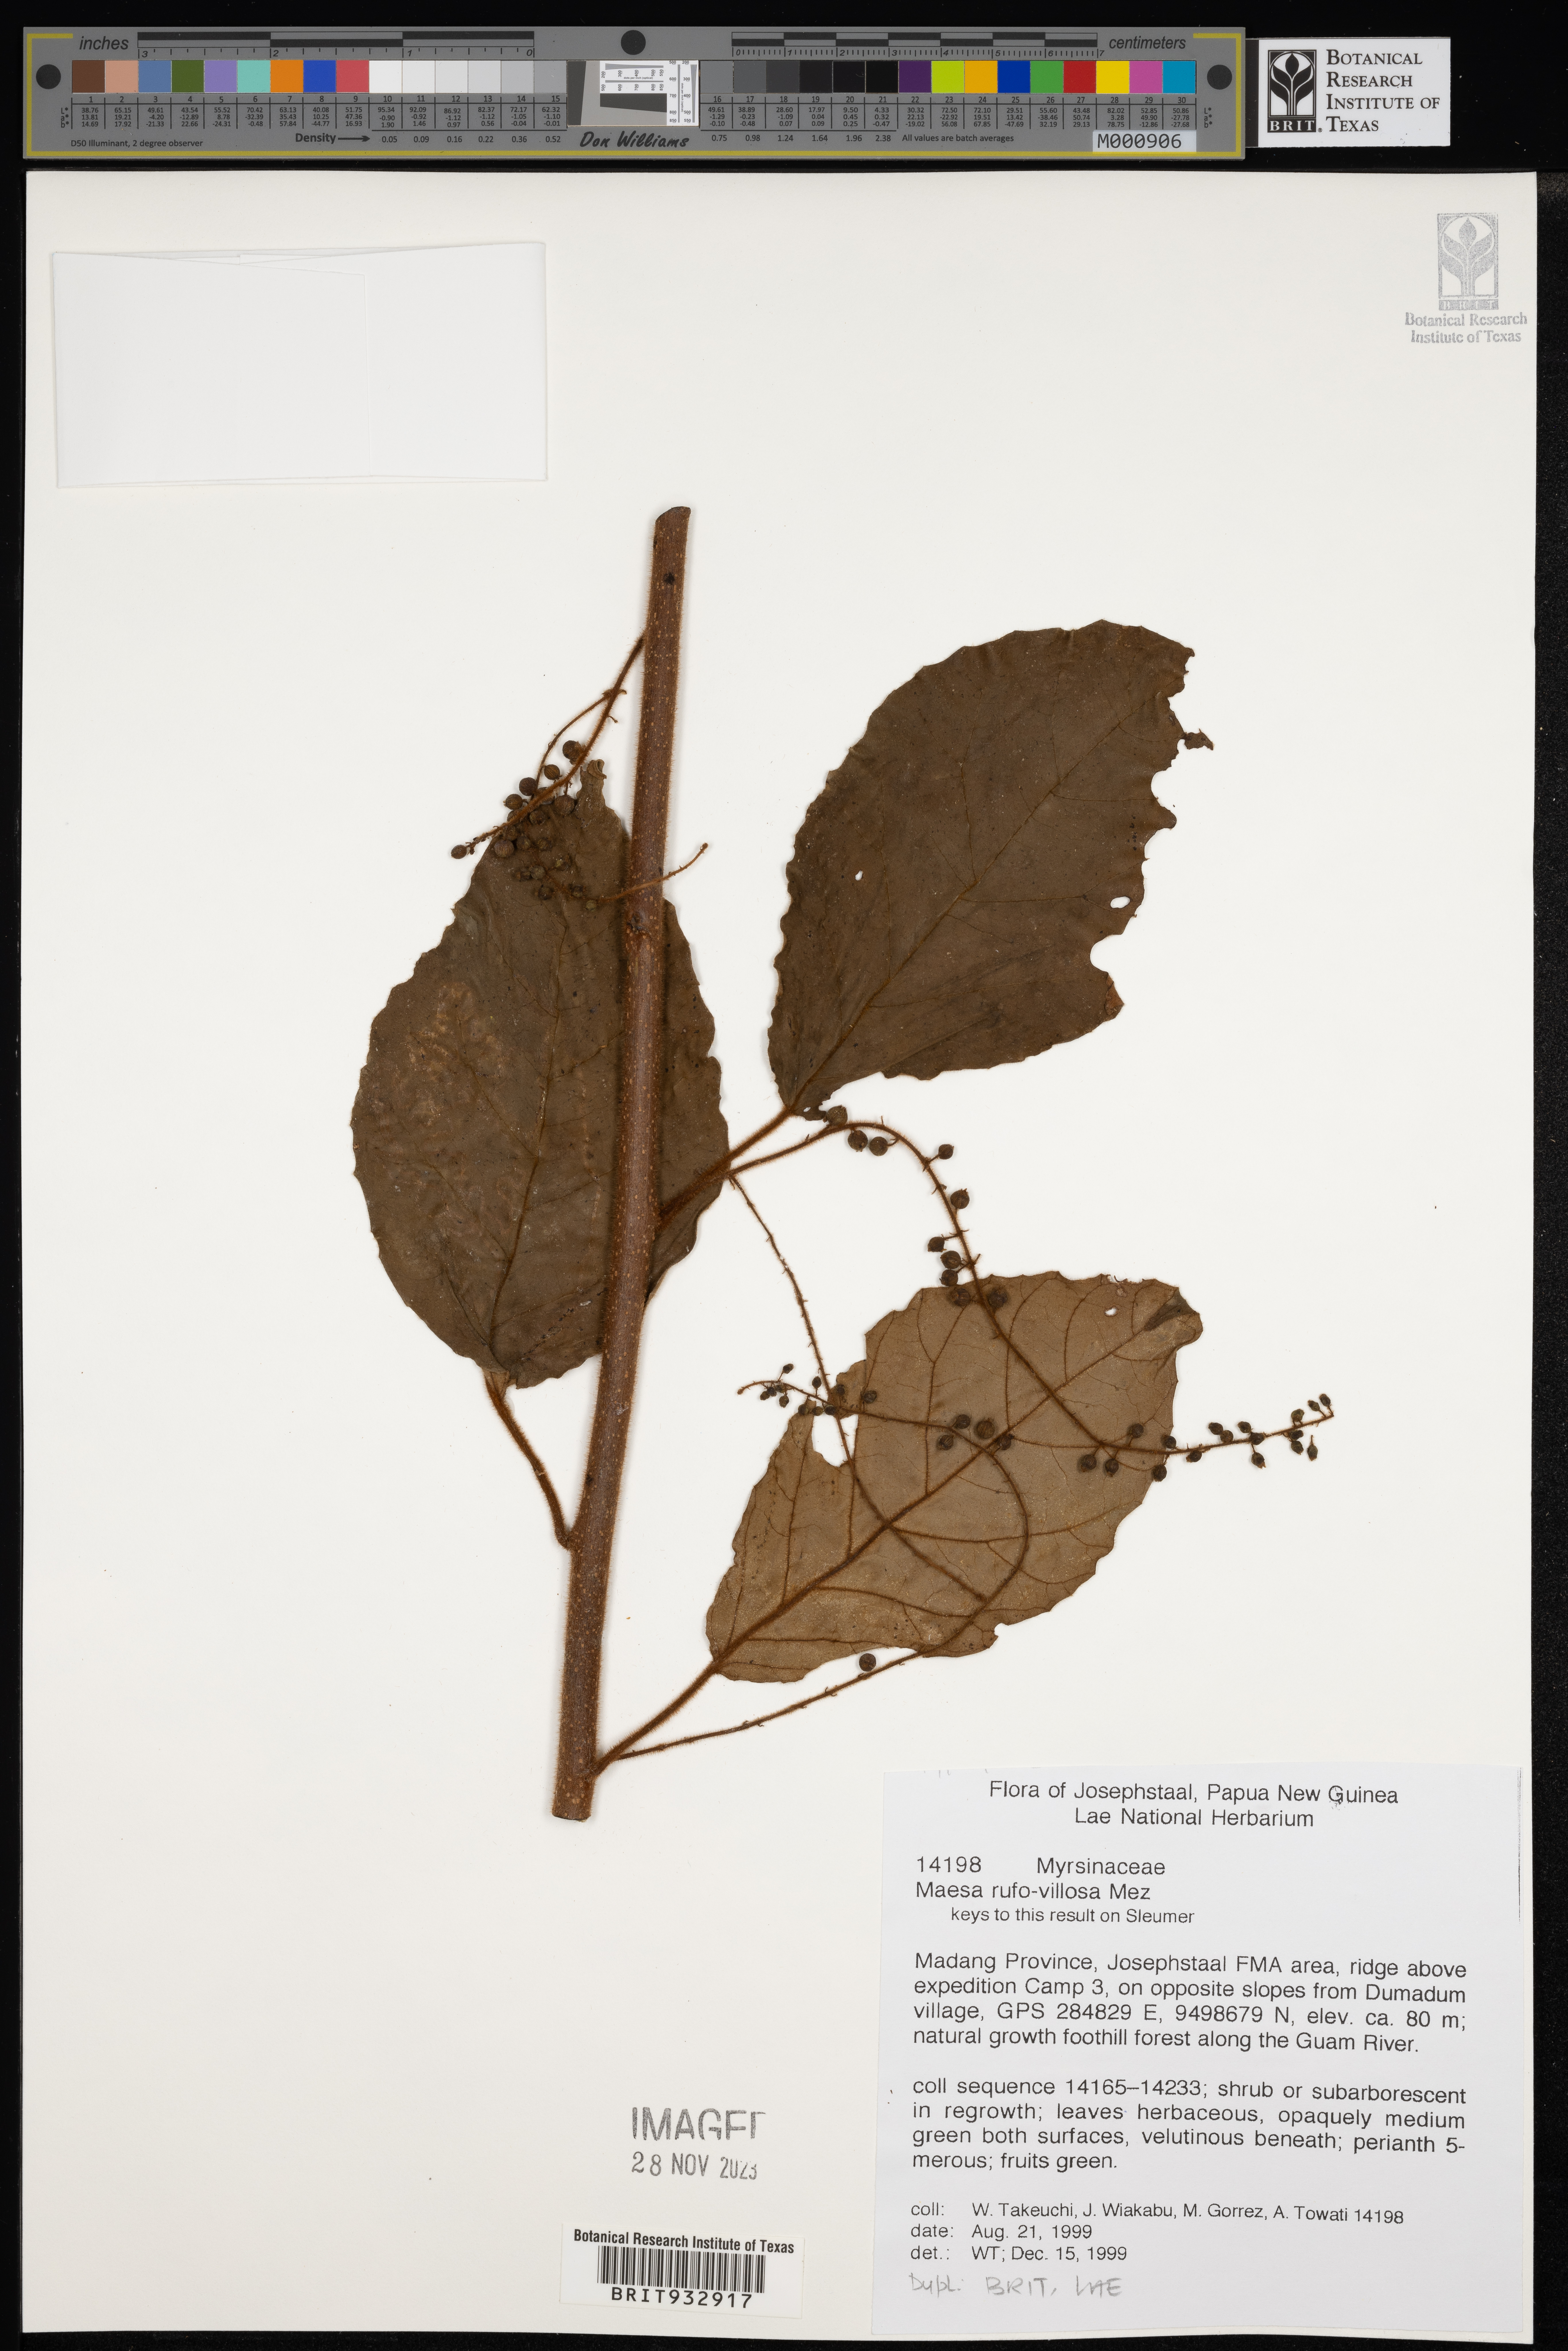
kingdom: Plantae
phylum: Tracheophyta
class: Magnoliopsida
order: Ericales
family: Primulaceae
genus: Maesa
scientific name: Maesa
